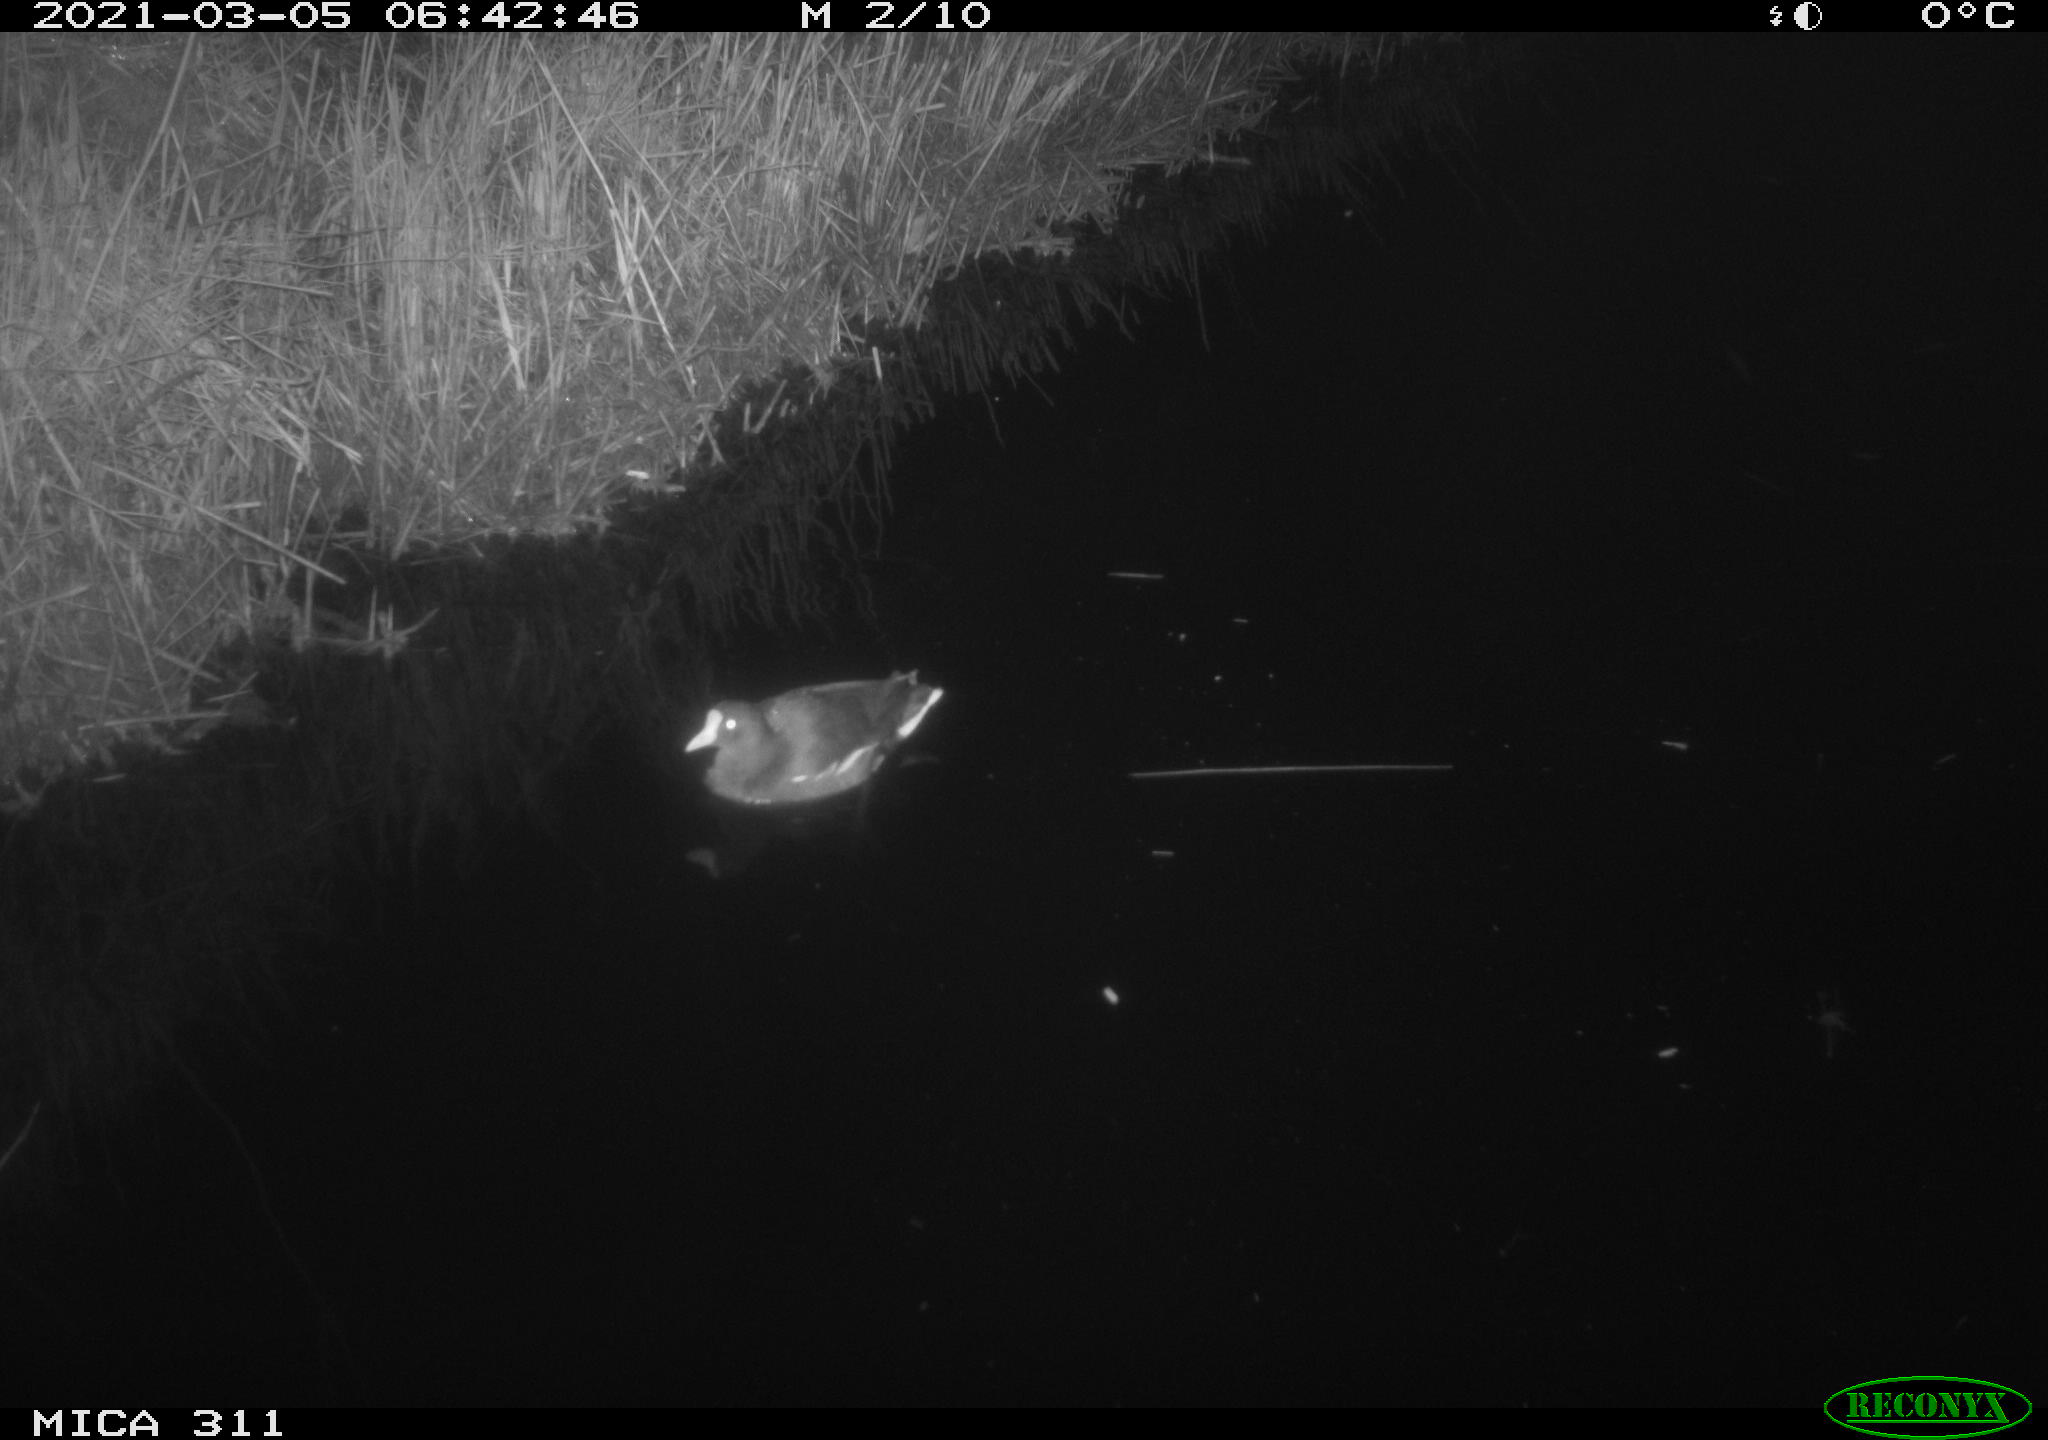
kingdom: Animalia
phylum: Chordata
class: Aves
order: Gruiformes
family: Rallidae
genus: Gallinula
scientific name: Gallinula chloropus
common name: Common moorhen
